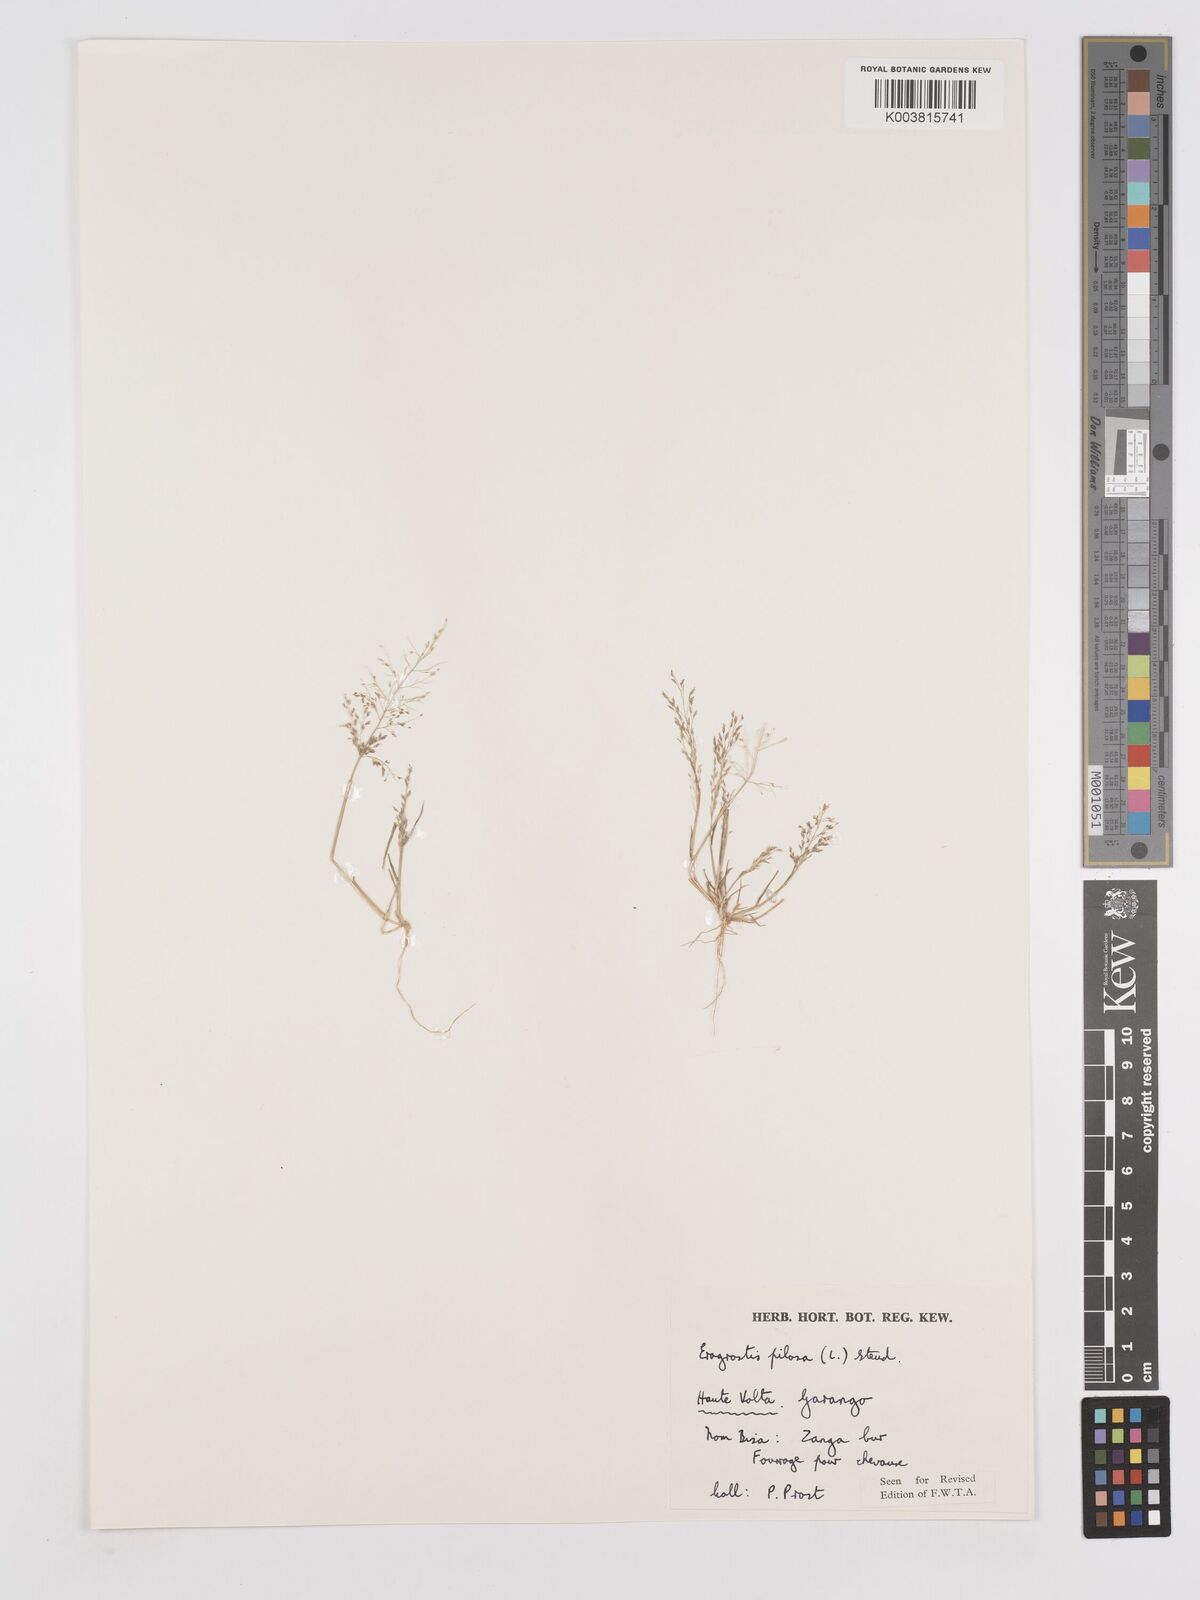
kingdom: Plantae
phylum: Tracheophyta
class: Liliopsida
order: Poales
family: Poaceae
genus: Eragrostis
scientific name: Eragrostis pilosa
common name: Indian lovegrass
